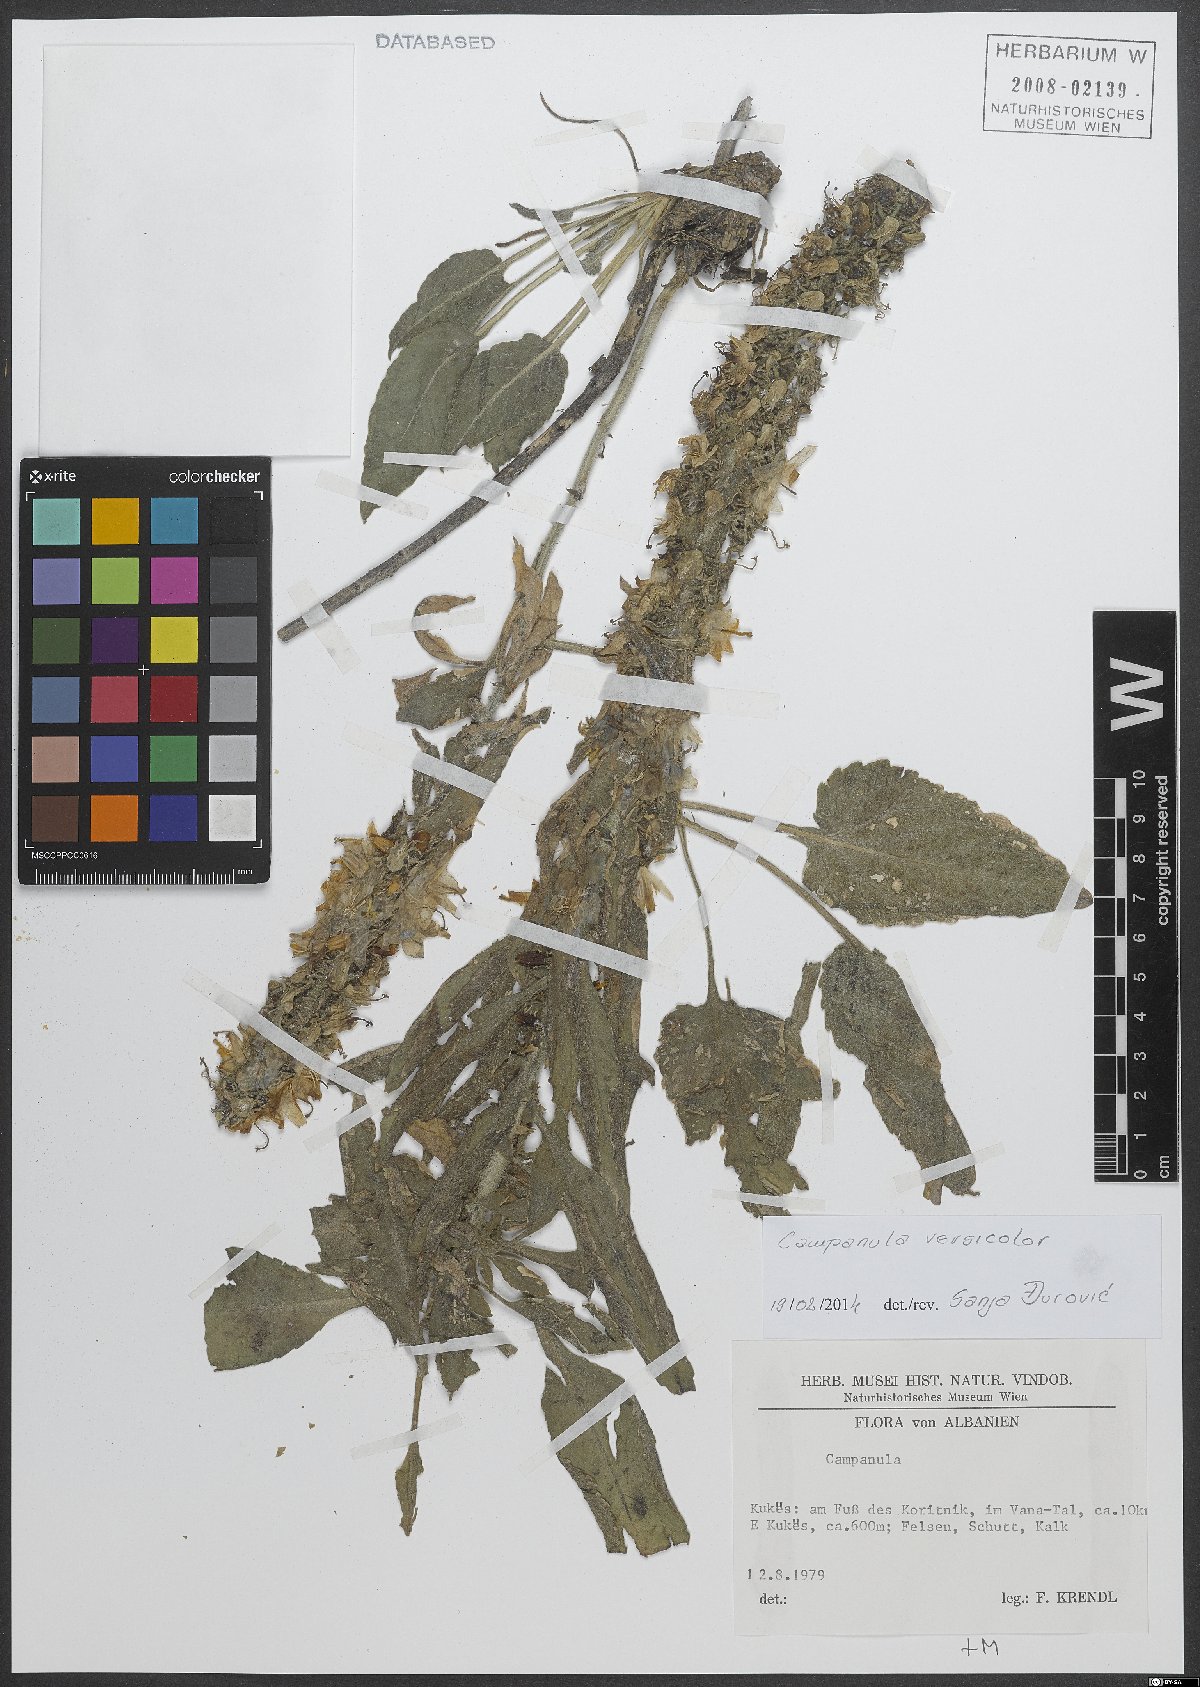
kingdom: Plantae
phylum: Tracheophyta
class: Magnoliopsida
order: Asterales
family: Campanulaceae
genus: Campanula
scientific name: Campanula versicolor
